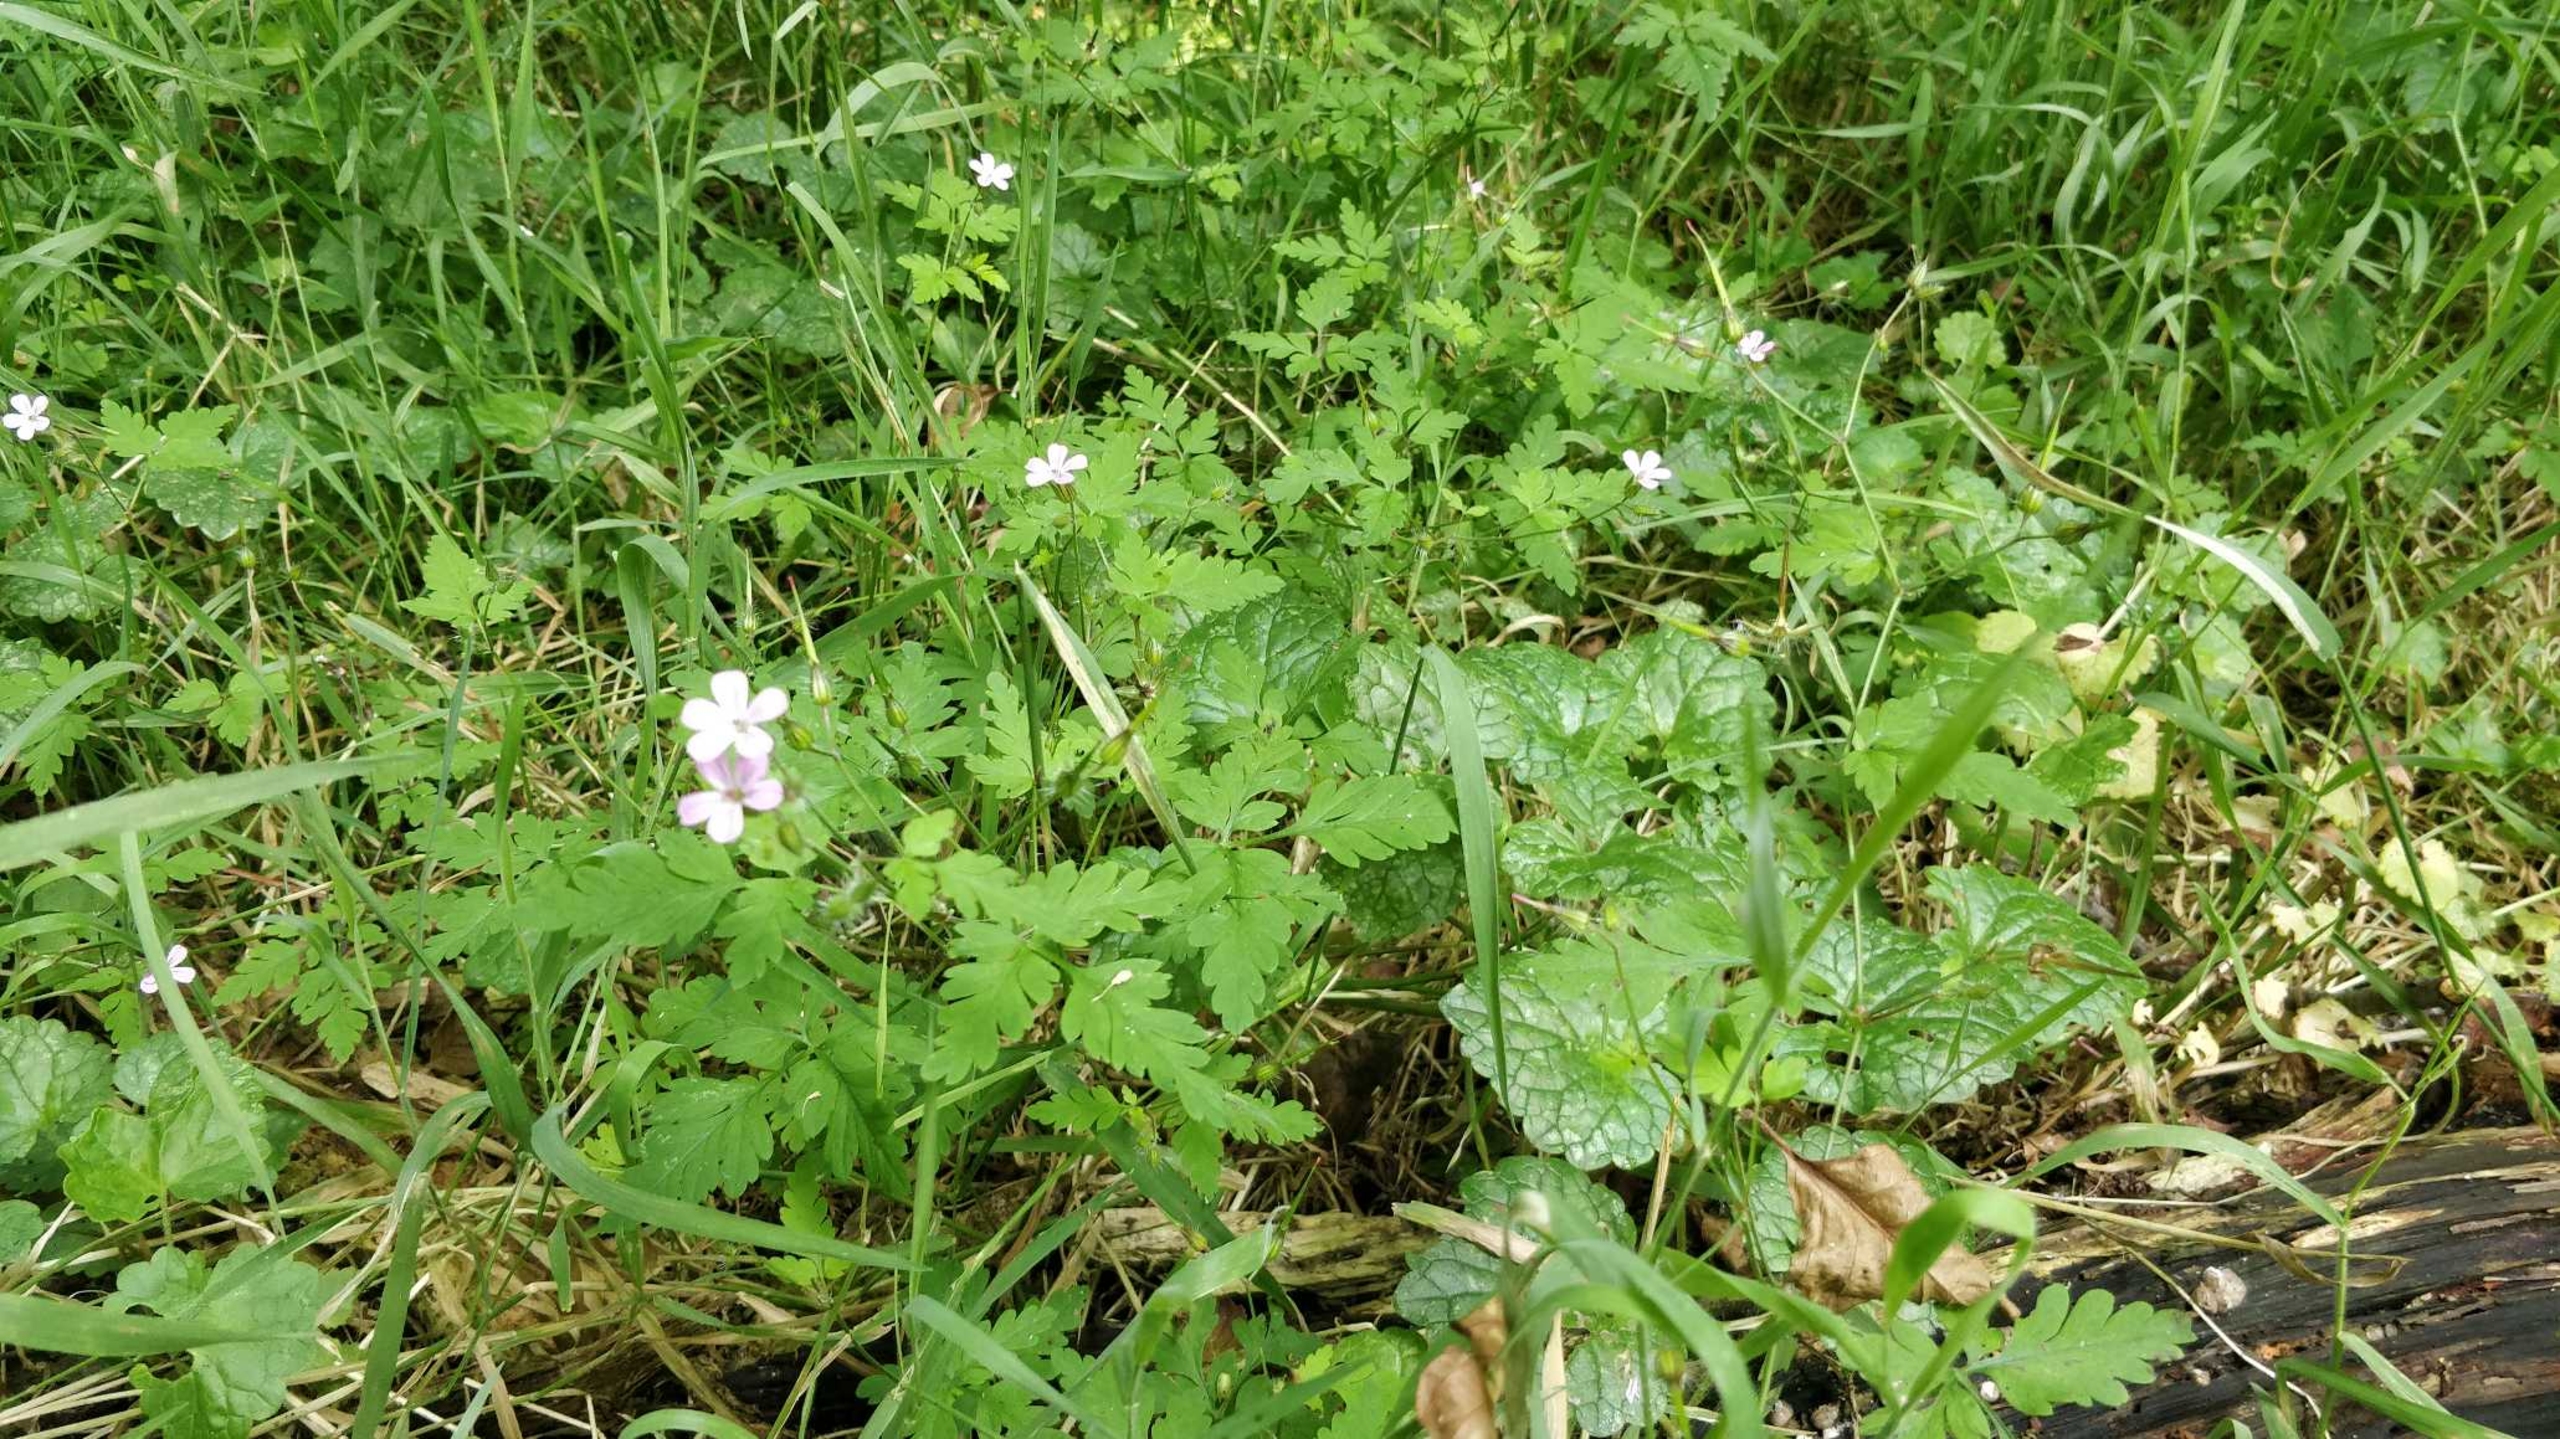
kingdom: Plantae
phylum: Tracheophyta
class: Magnoliopsida
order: Geraniales
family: Geraniaceae
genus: Geranium
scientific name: Geranium robertianum
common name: Stinkende storkenæb
